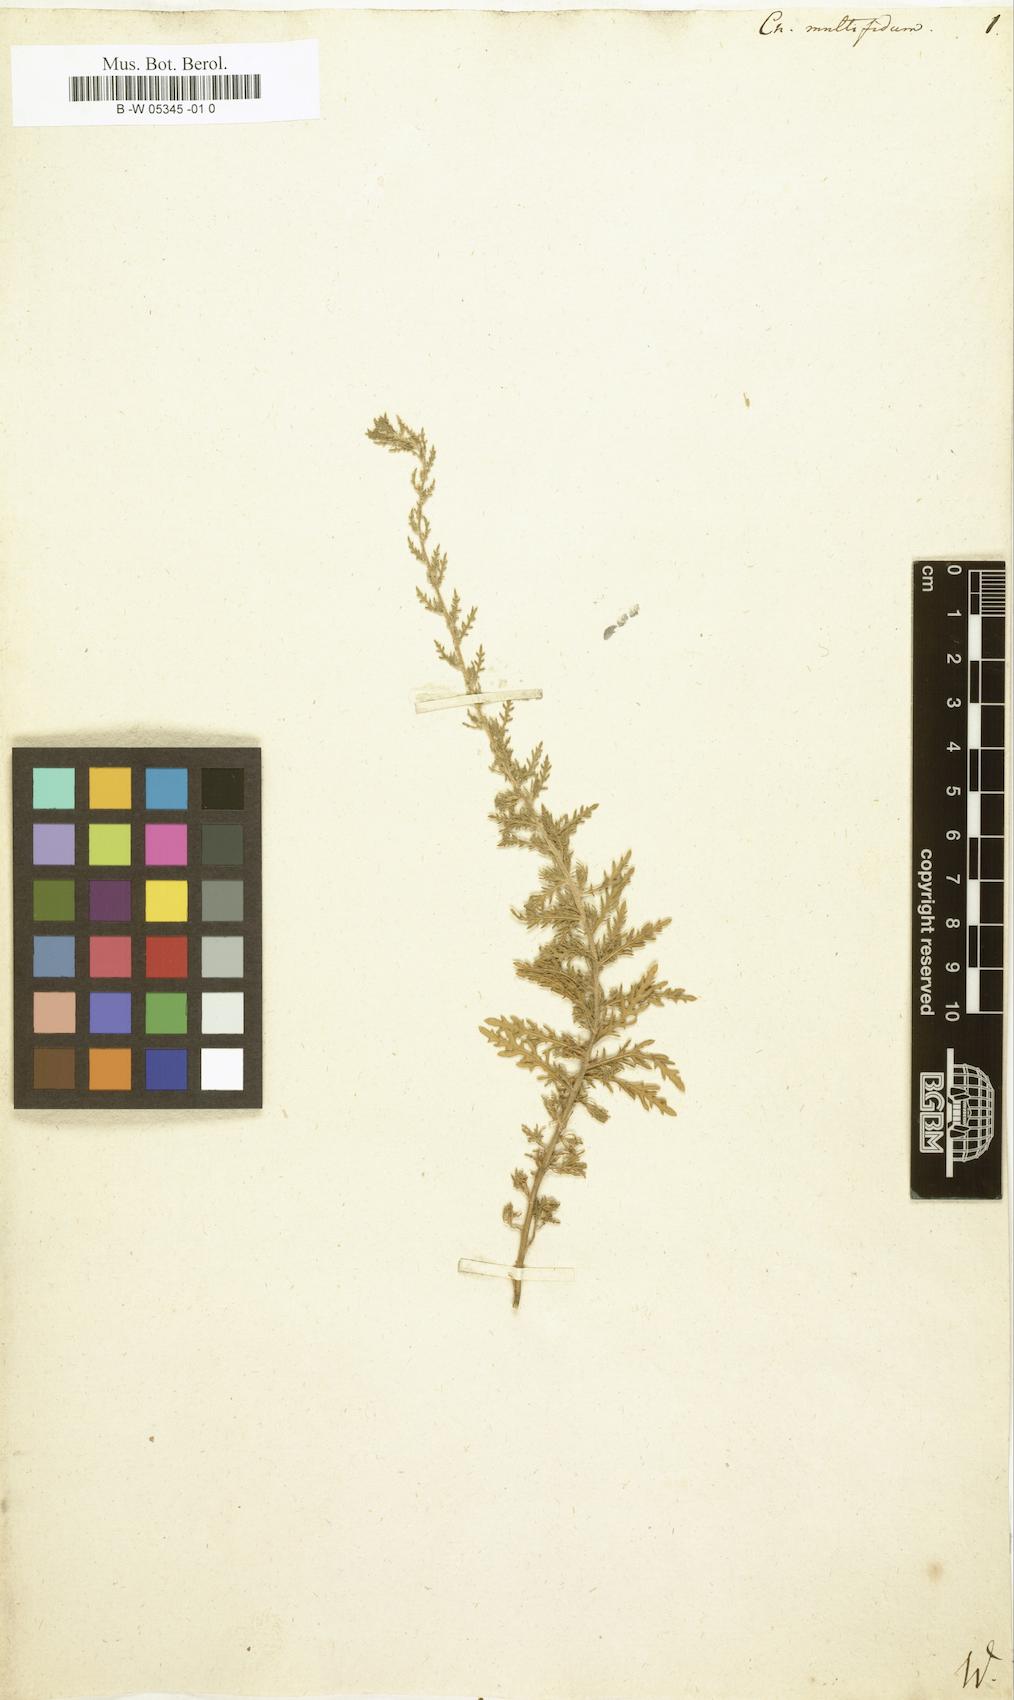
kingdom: Plantae
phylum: Tracheophyta
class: Magnoliopsida
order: Caryophyllales
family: Amaranthaceae
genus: Dysphania
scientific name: Dysphania multifida
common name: Cutleaf goosefoot
